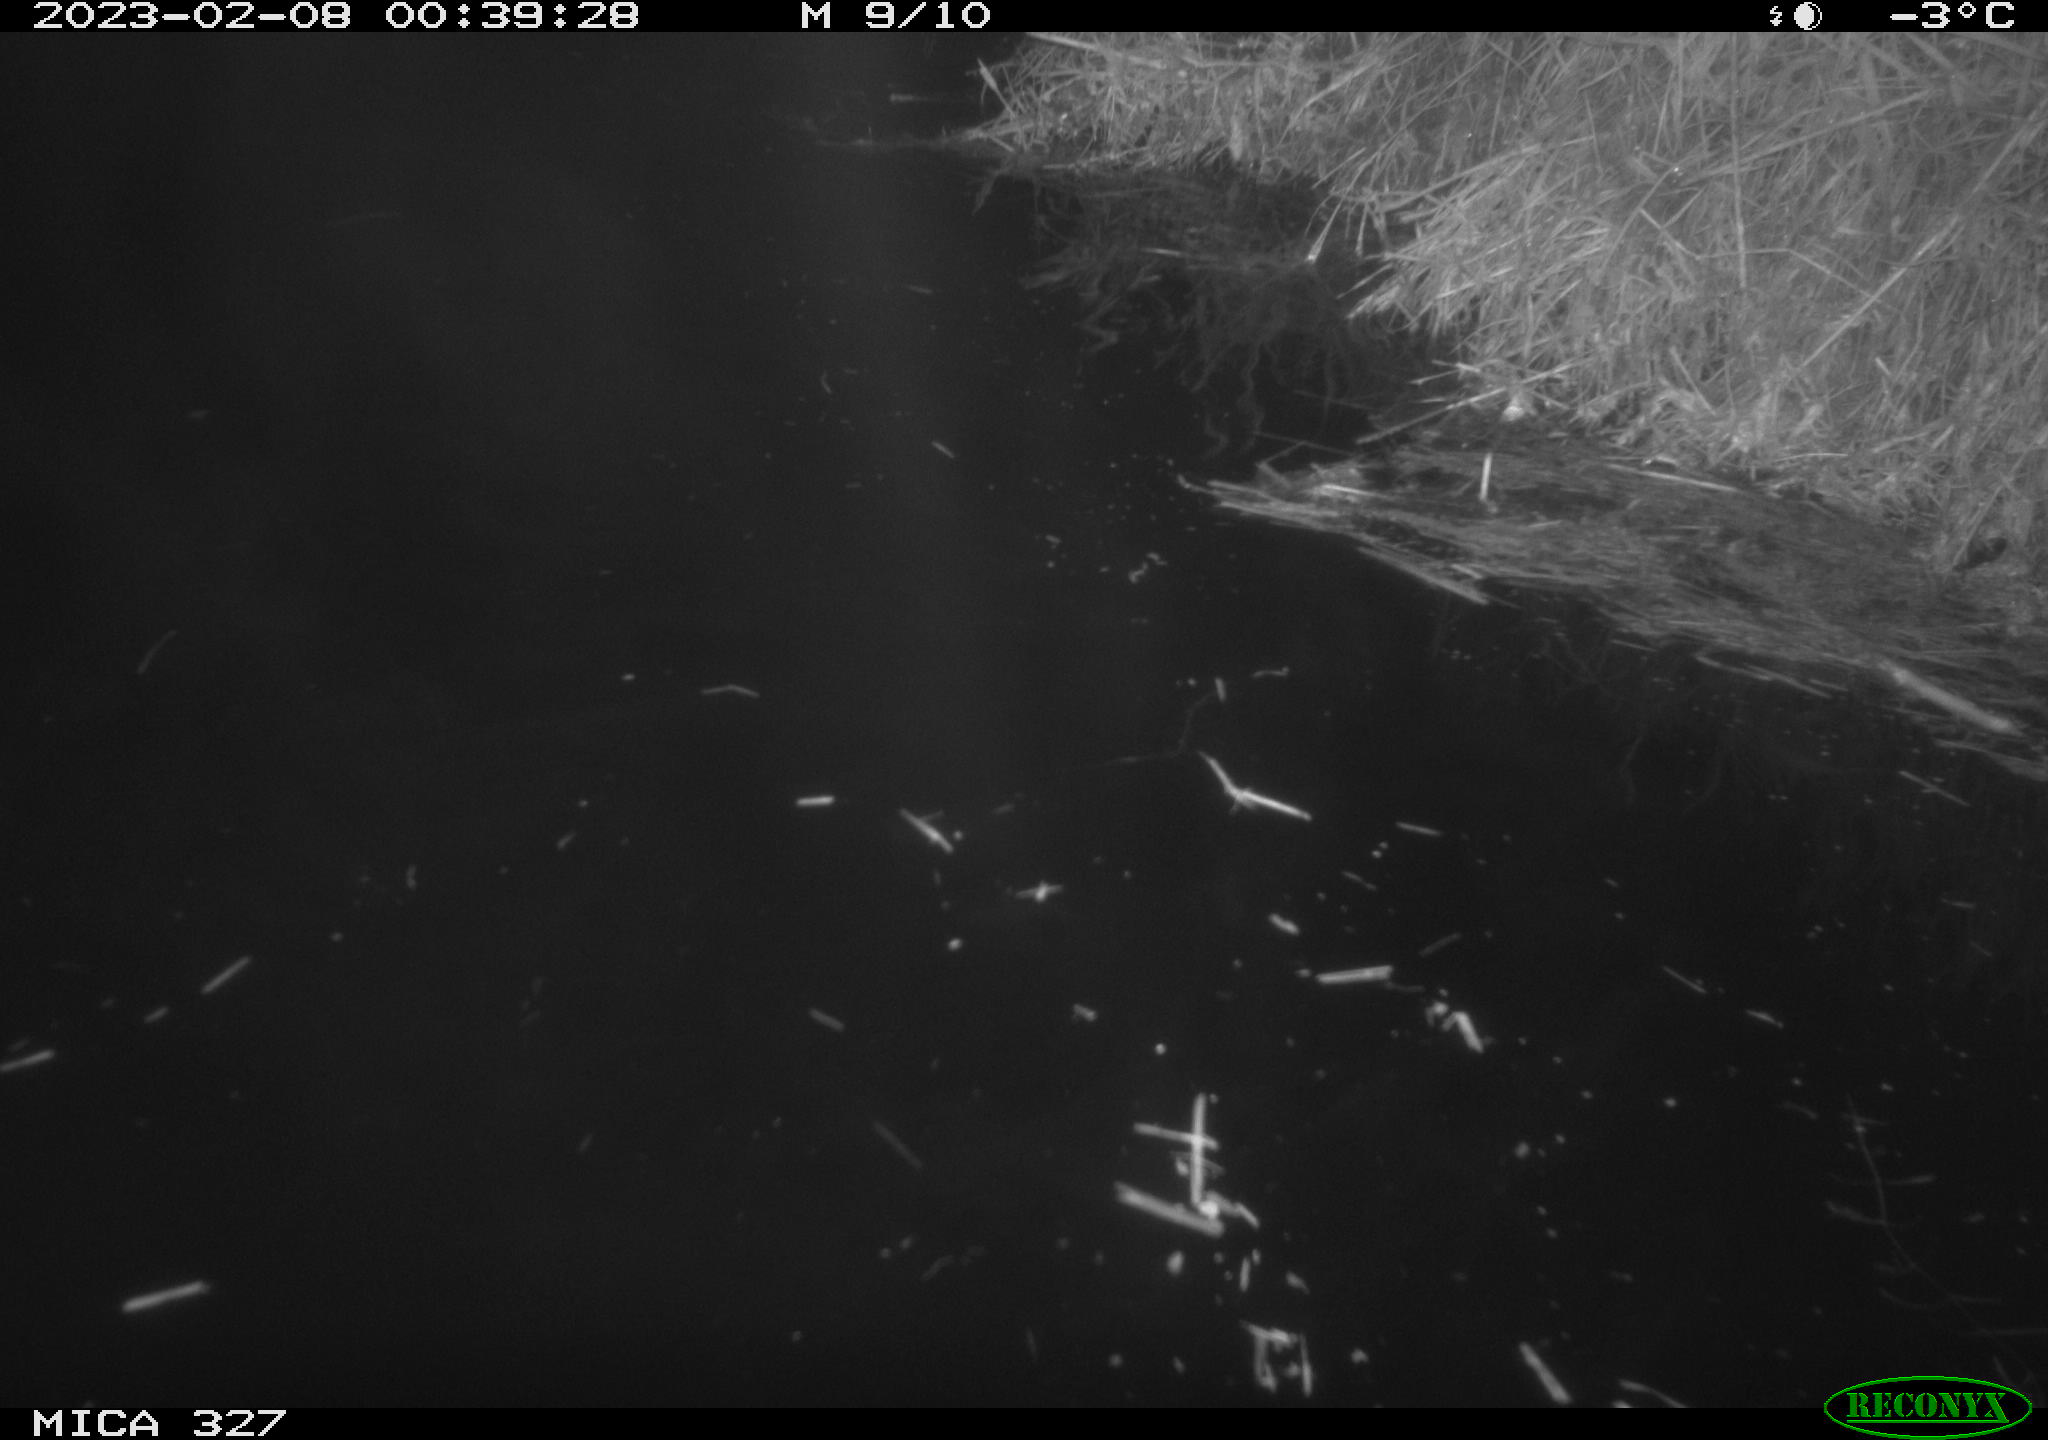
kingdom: Animalia
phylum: Chordata
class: Mammalia
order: Rodentia
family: Cricetidae
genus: Ondatra
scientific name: Ondatra zibethicus
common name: Muskrat
